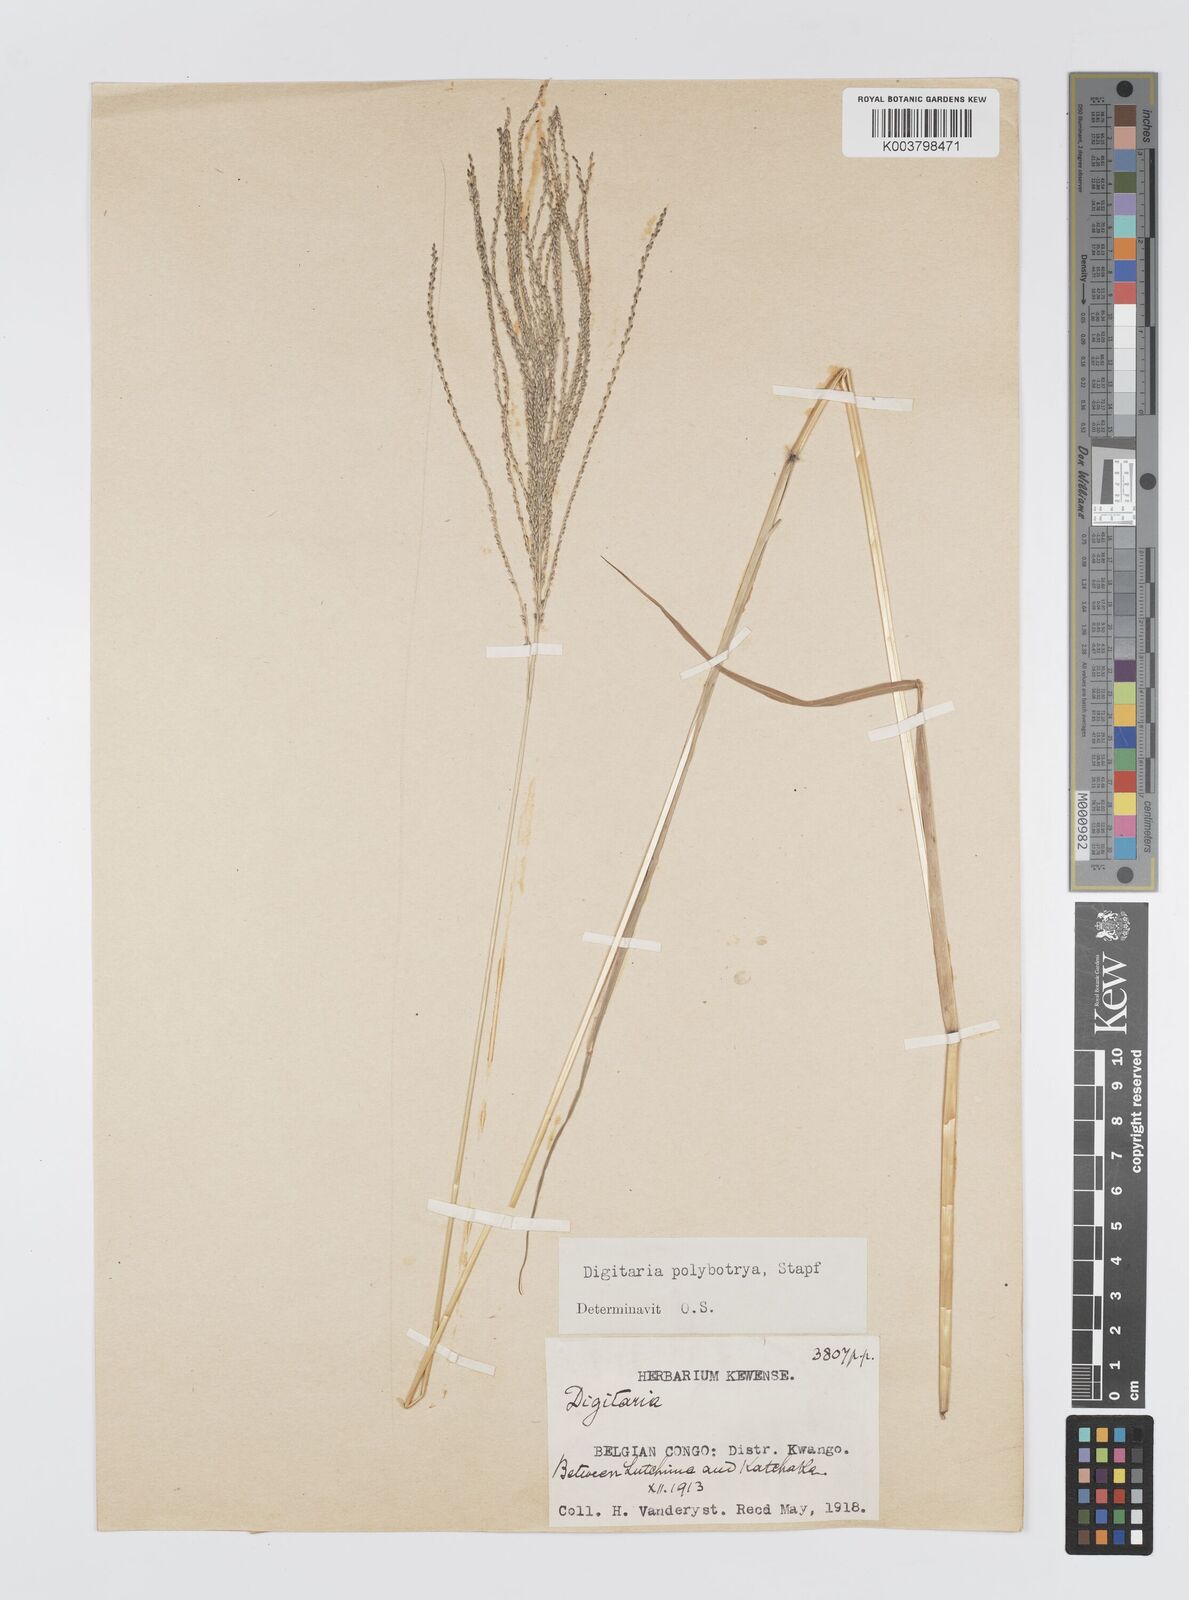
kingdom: Plantae
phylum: Tracheophyta
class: Liliopsida
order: Poales
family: Poaceae
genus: Digitaria
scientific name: Digitaria leptorhachis
